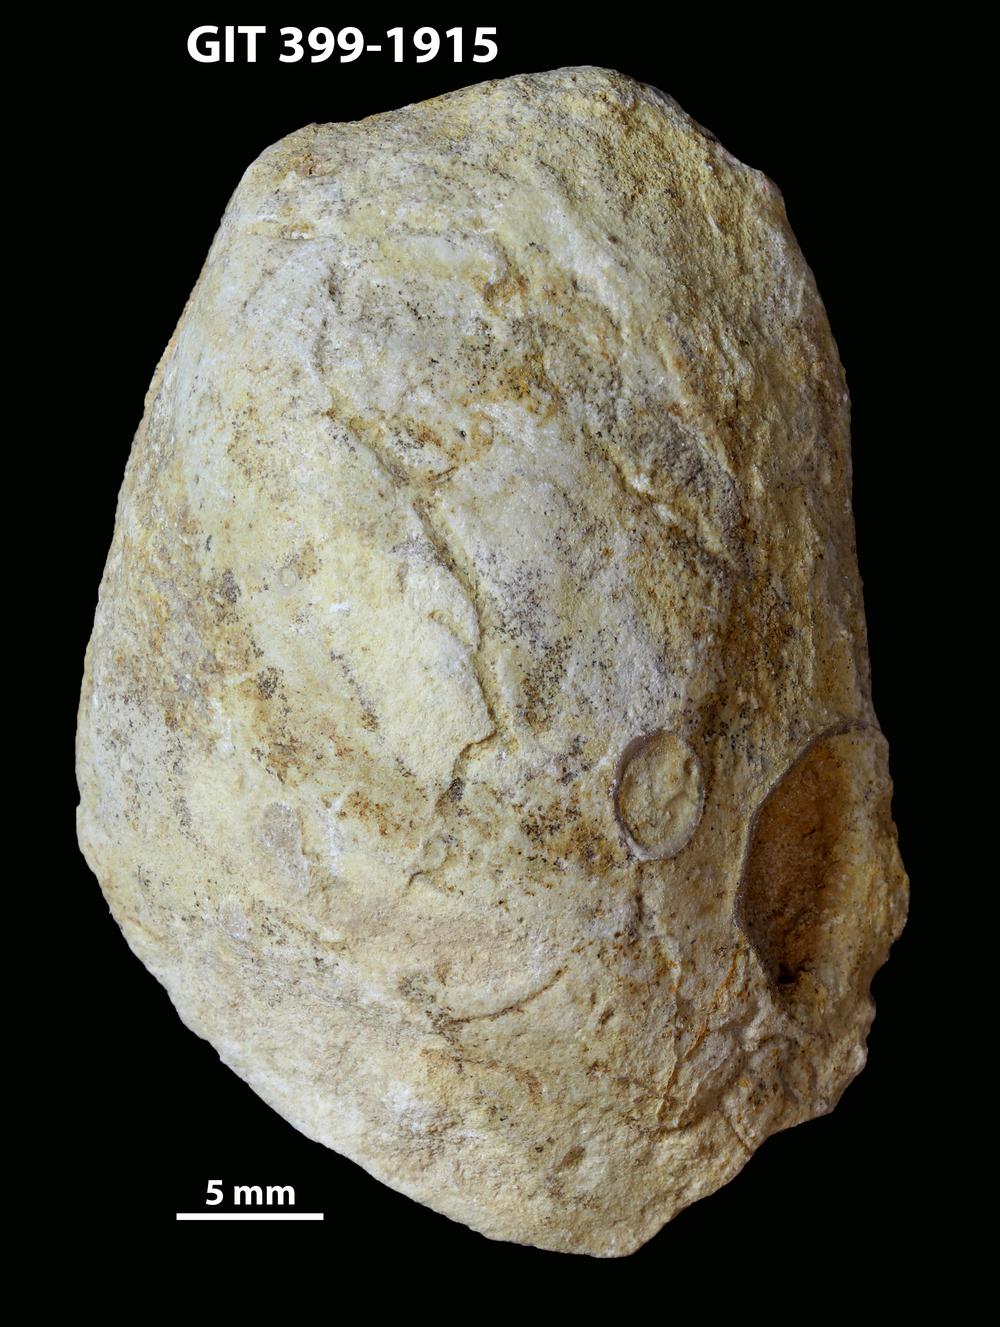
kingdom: Animalia
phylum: Mollusca
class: Bivalvia
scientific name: Bivalvia
